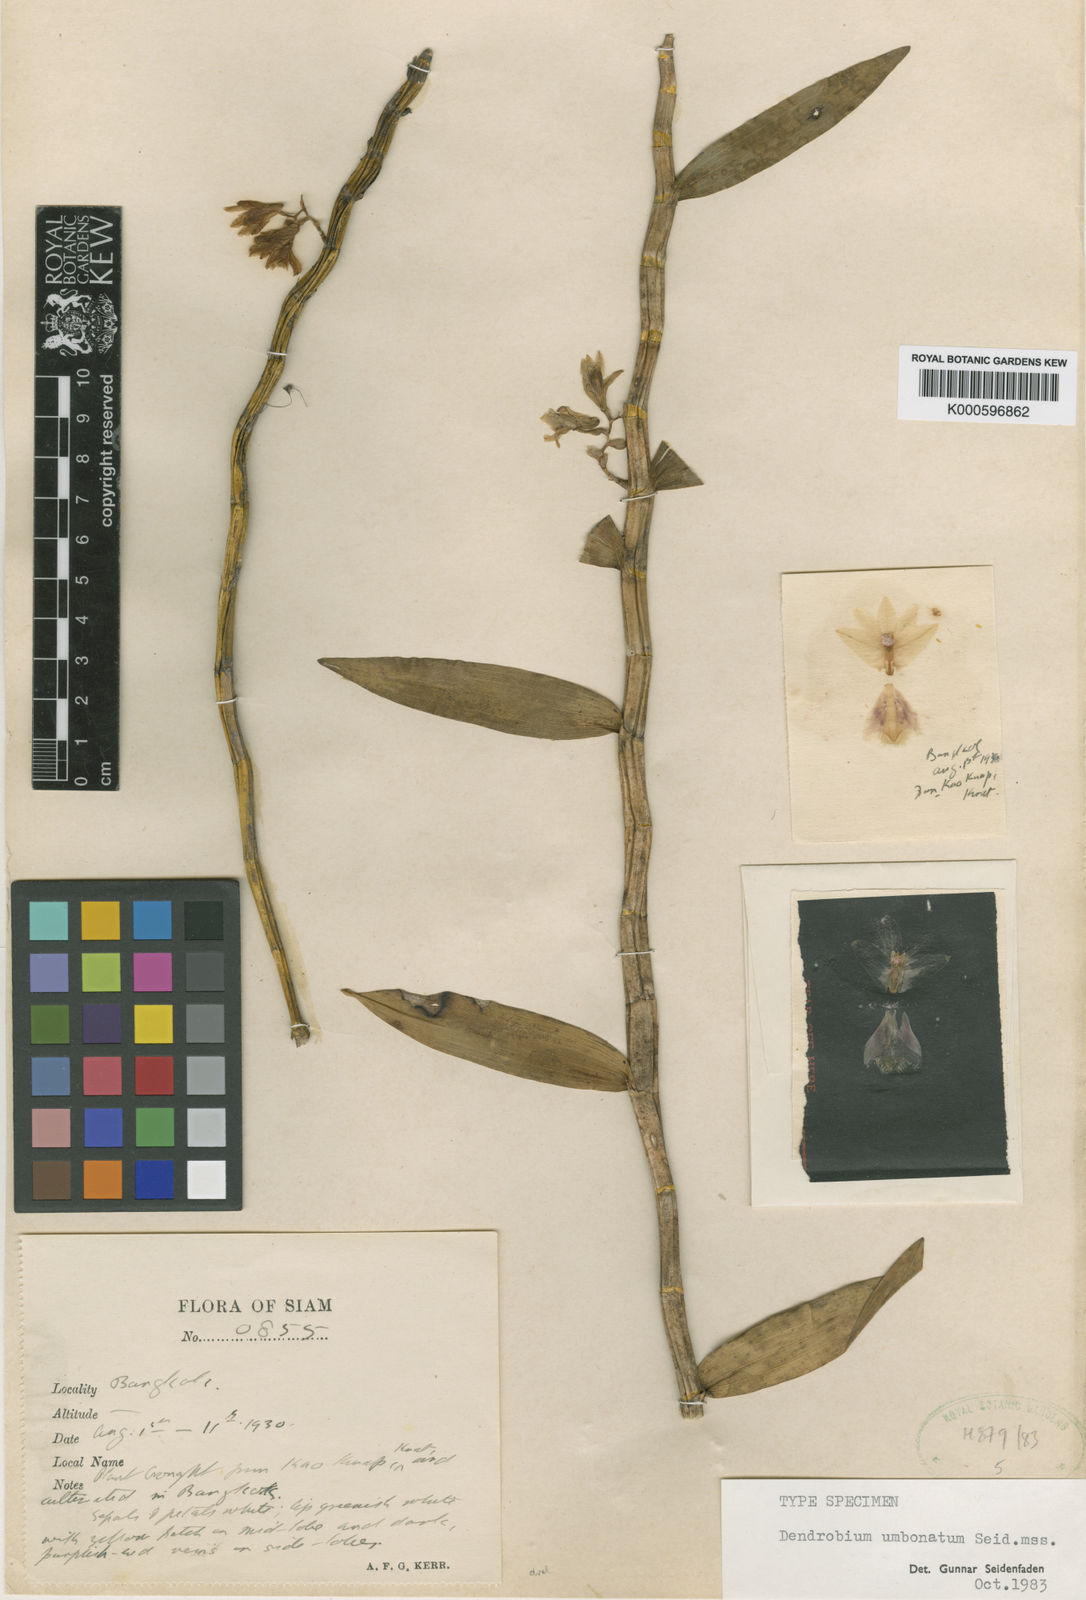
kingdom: Plantae
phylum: Tracheophyta
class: Liliopsida
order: Asparagales
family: Orchidaceae
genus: Dendrobium
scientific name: Dendrobium umbonatum
